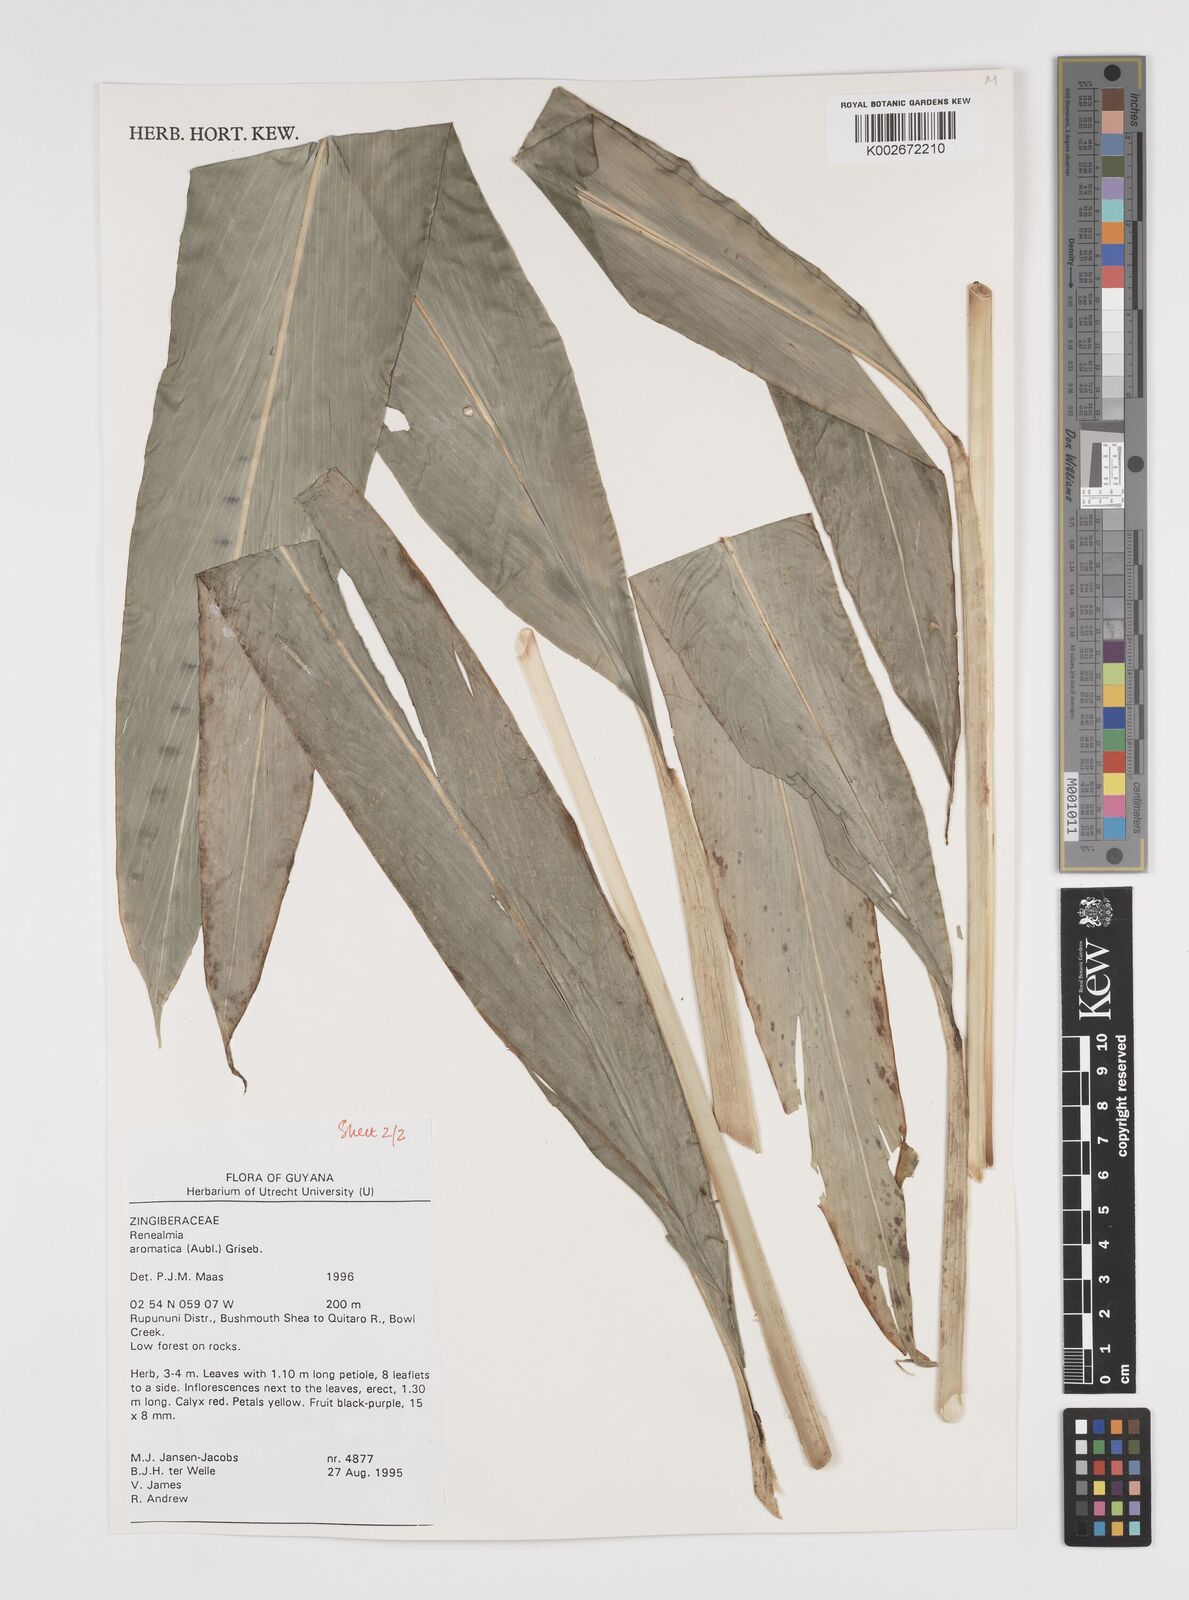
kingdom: Plantae
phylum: Tracheophyta
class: Liliopsida
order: Zingiberales
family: Zingiberaceae
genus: Renealmia
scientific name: Renealmia aromatica
